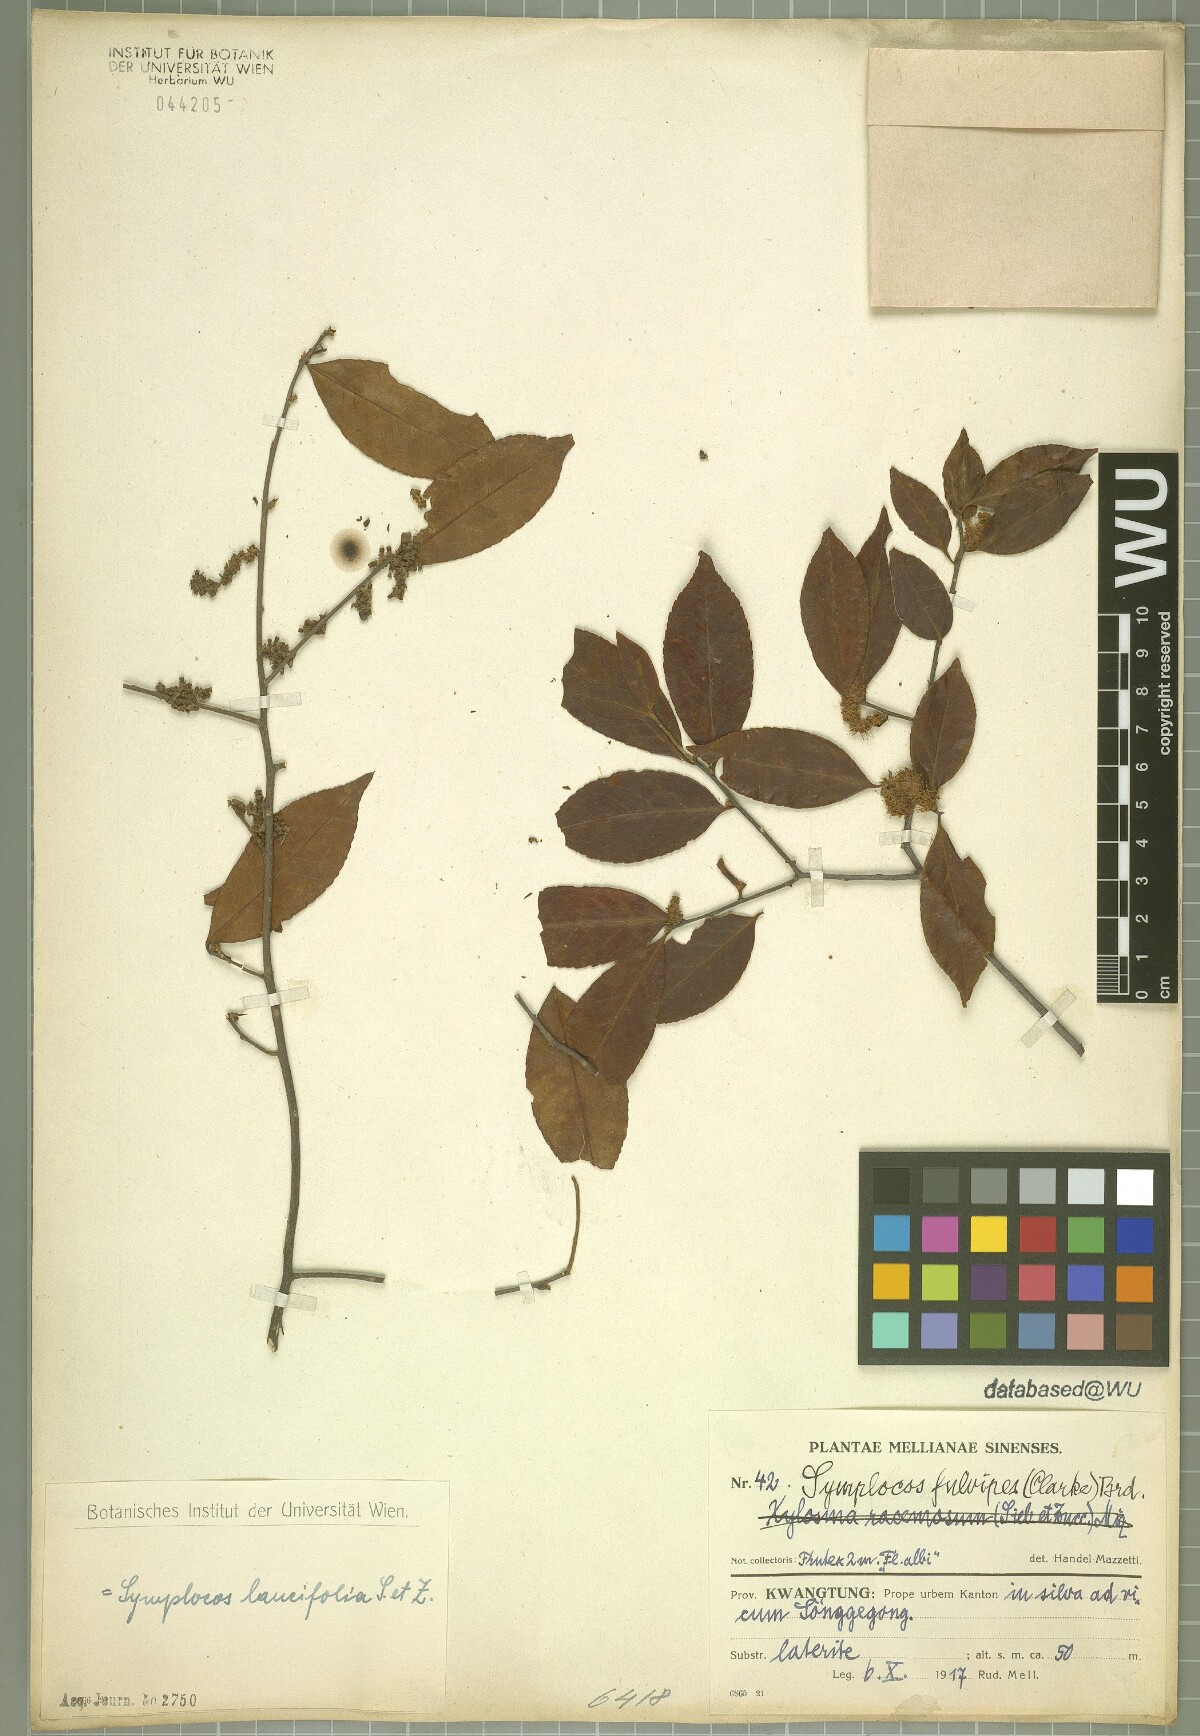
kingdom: Plantae
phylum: Tracheophyta
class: Magnoliopsida
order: Ericales
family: Symplocaceae
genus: Symplocos
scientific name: Symplocos lancifolia
